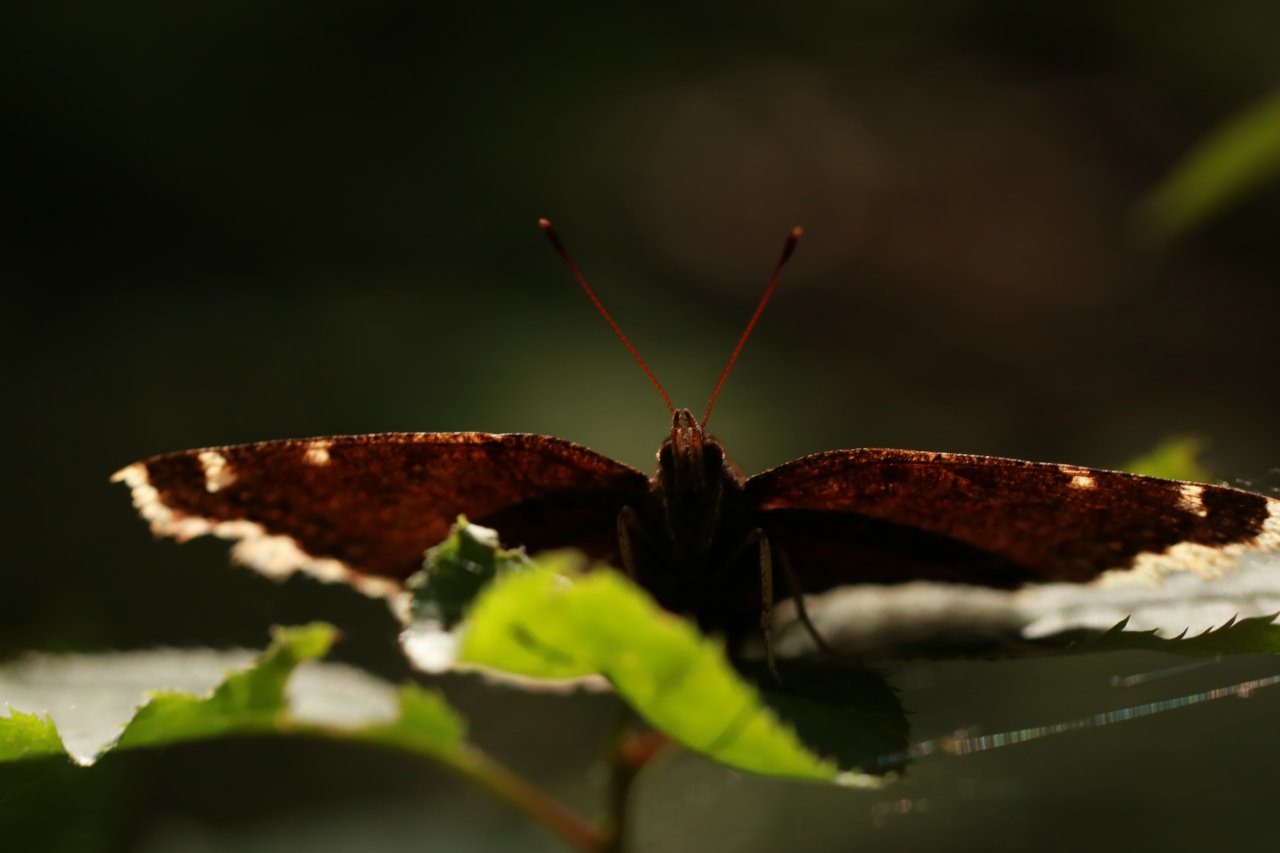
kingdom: Animalia
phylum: Arthropoda
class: Insecta
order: Lepidoptera
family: Nymphalidae
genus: Nymphalis
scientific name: Nymphalis antiopa
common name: Mourning Cloak
